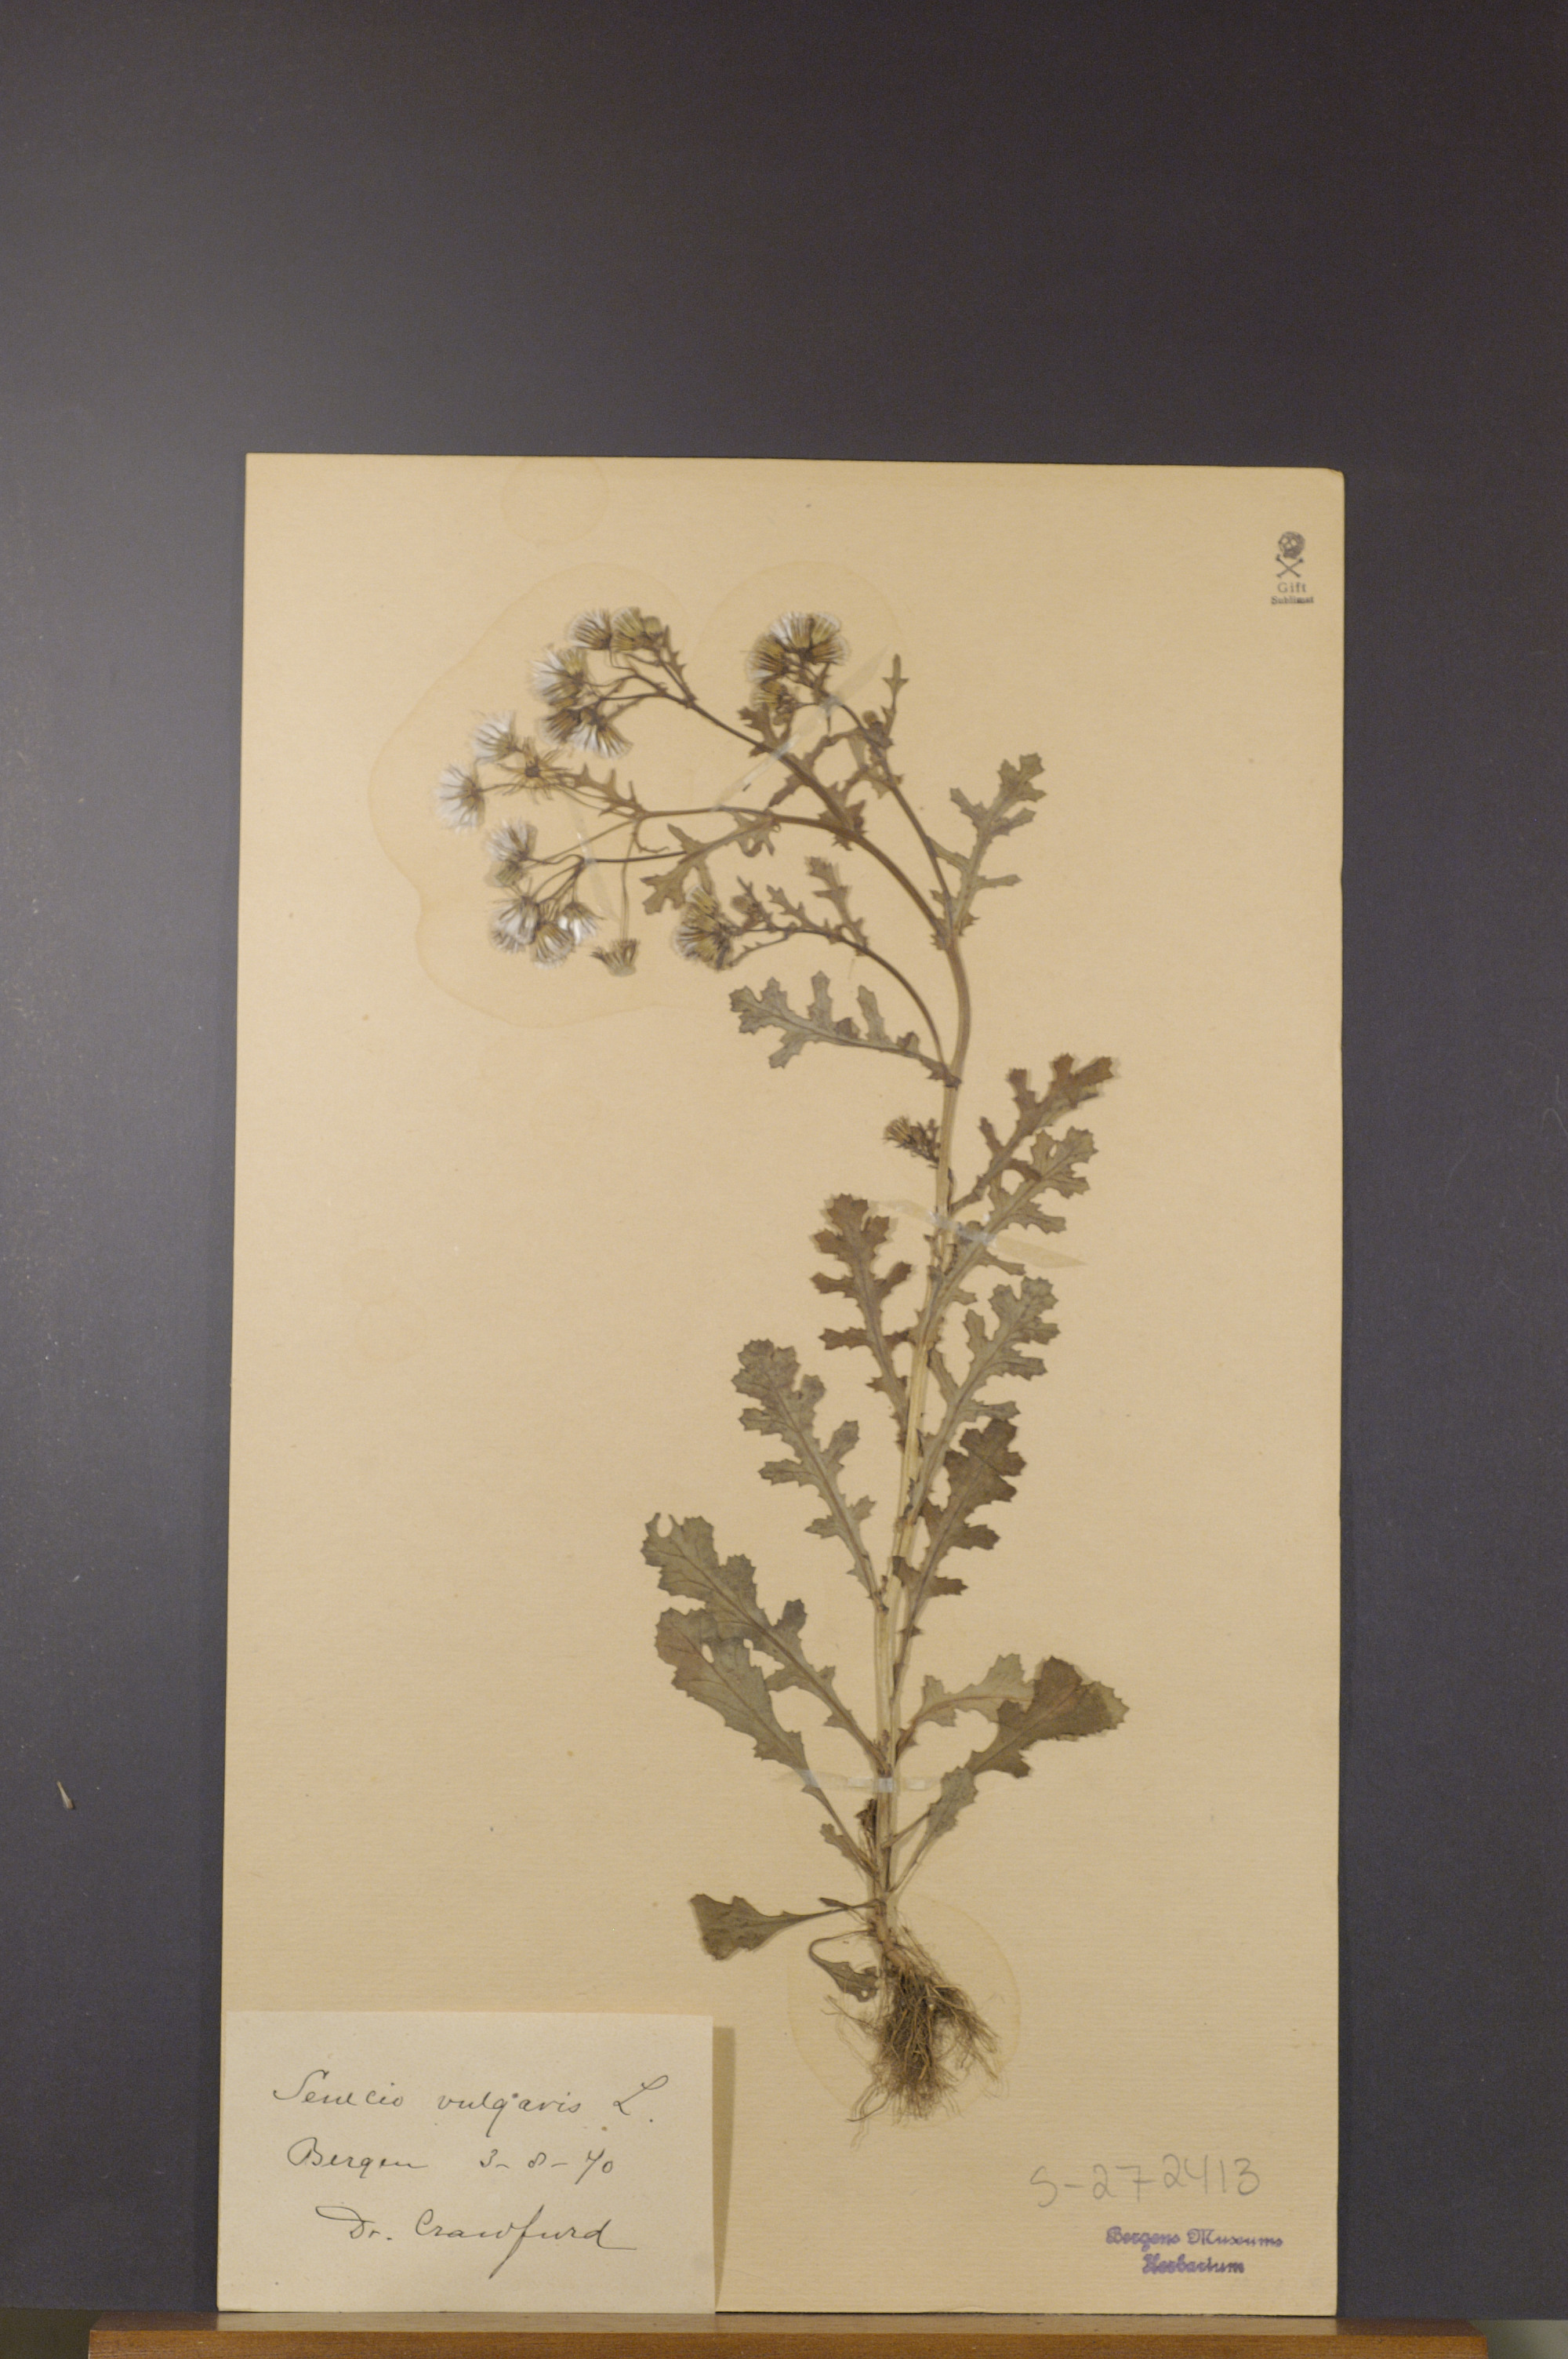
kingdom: Plantae
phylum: Tracheophyta
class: Magnoliopsida
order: Asterales
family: Asteraceae
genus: Senecio
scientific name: Senecio vulgaris
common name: Old-man-in-the-spring
